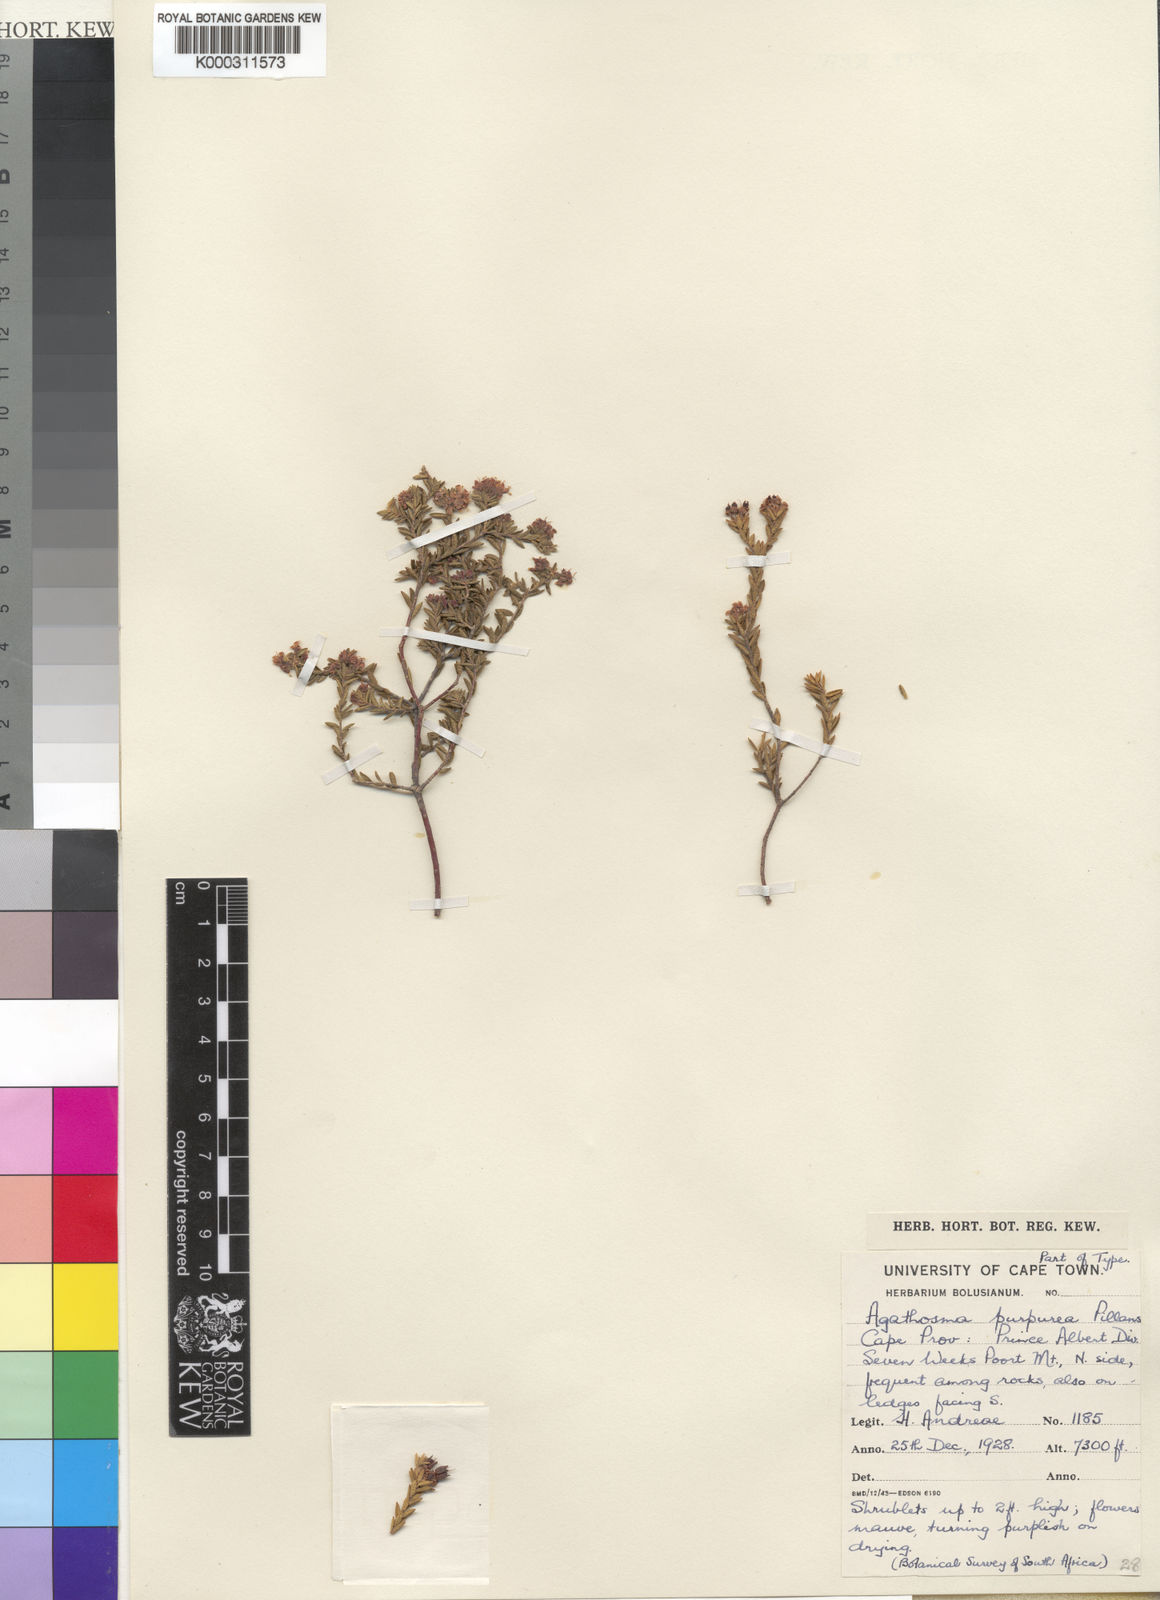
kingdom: Plantae
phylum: Tracheophyta
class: Magnoliopsida
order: Sapindales
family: Rutaceae
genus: Agathosma
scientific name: Agathosma purpurea
